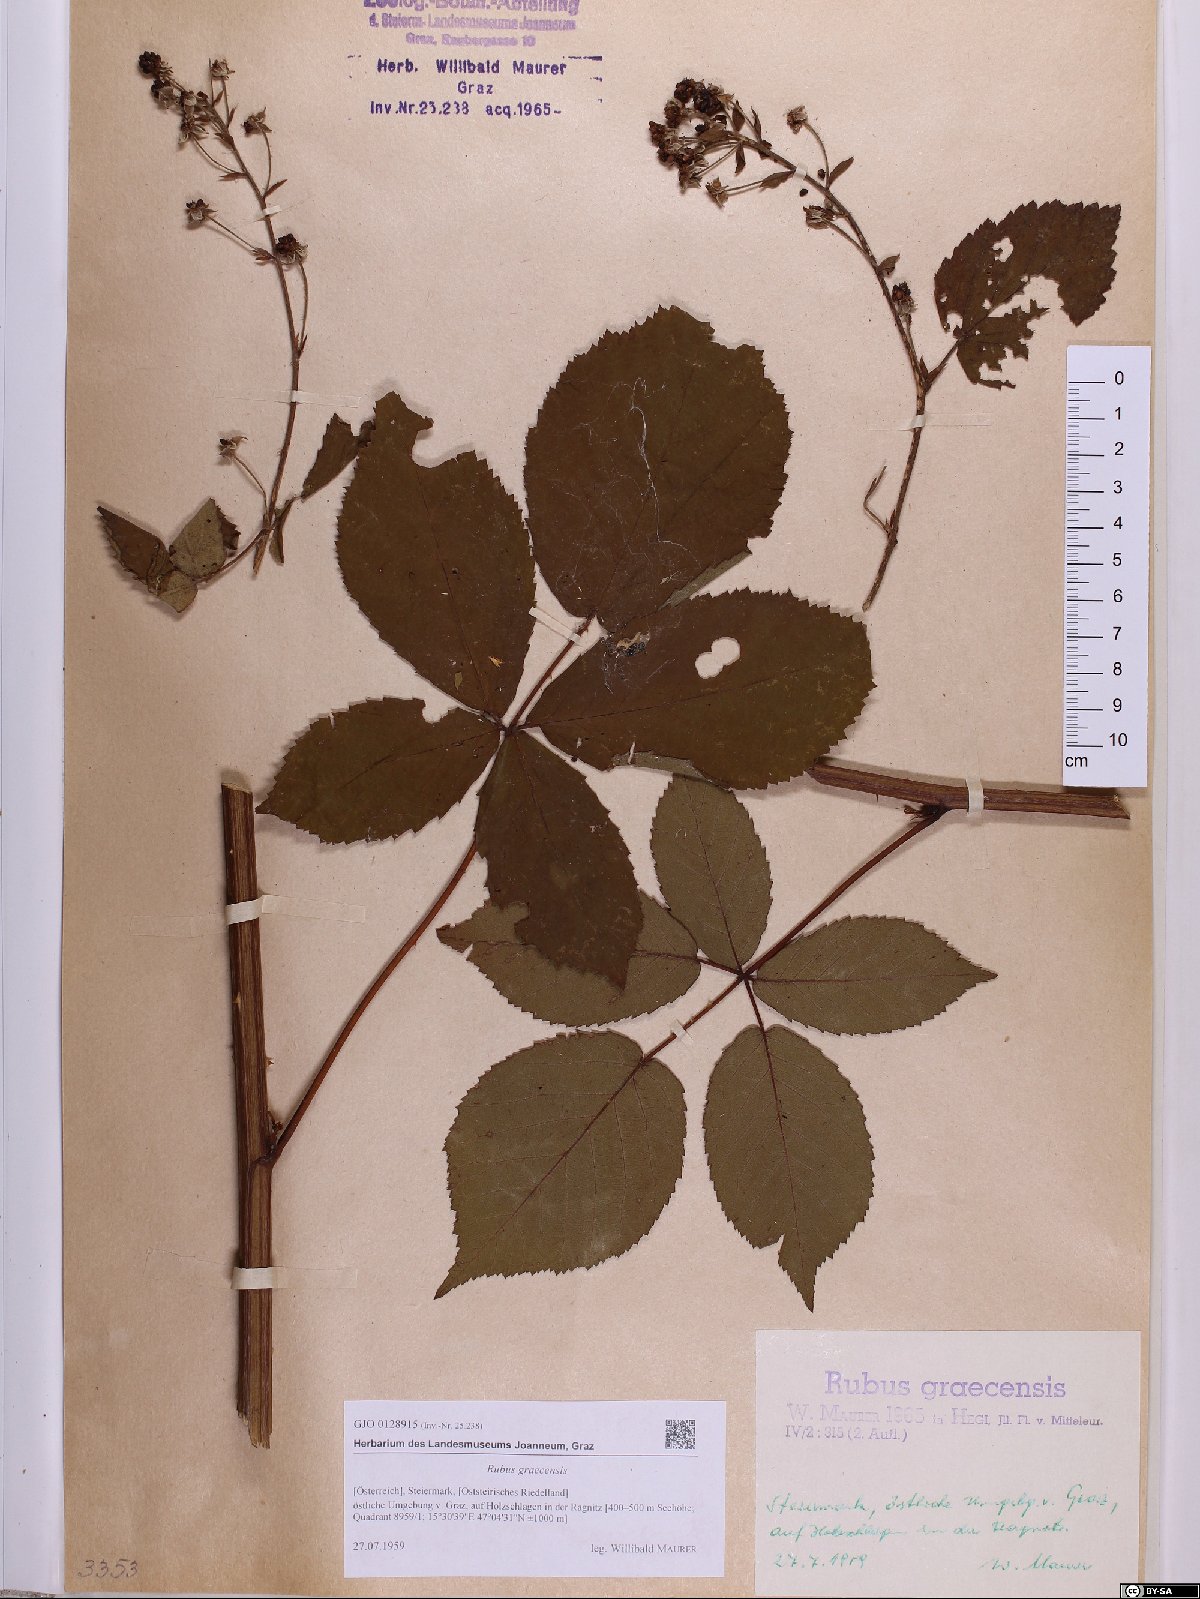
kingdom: Plantae
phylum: Tracheophyta
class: Magnoliopsida
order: Rosales
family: Rosaceae
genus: Rubus
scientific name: Rubus graecensis
